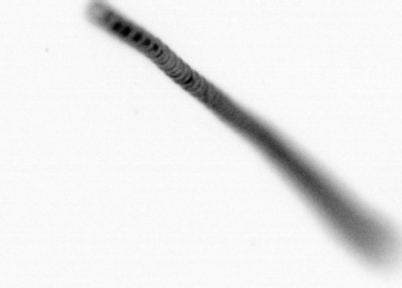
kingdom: Chromista
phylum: Ochrophyta
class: Bacillariophyceae
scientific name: Bacillariophyceae
